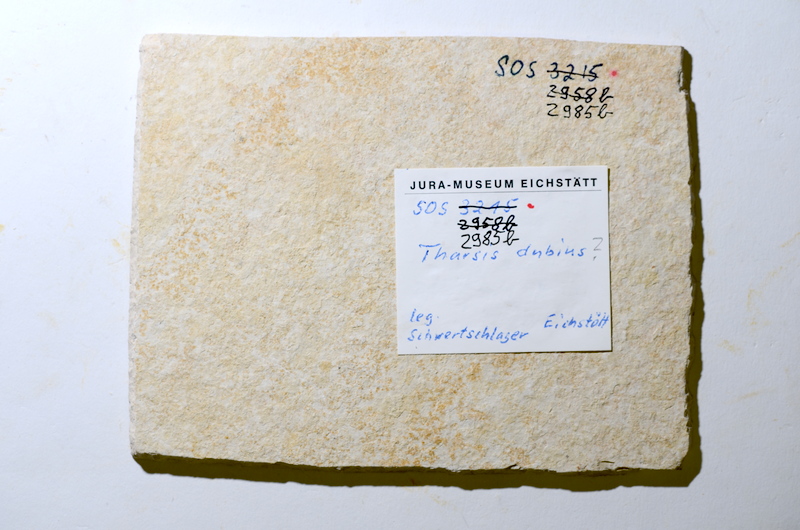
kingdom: Animalia
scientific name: Animalia
